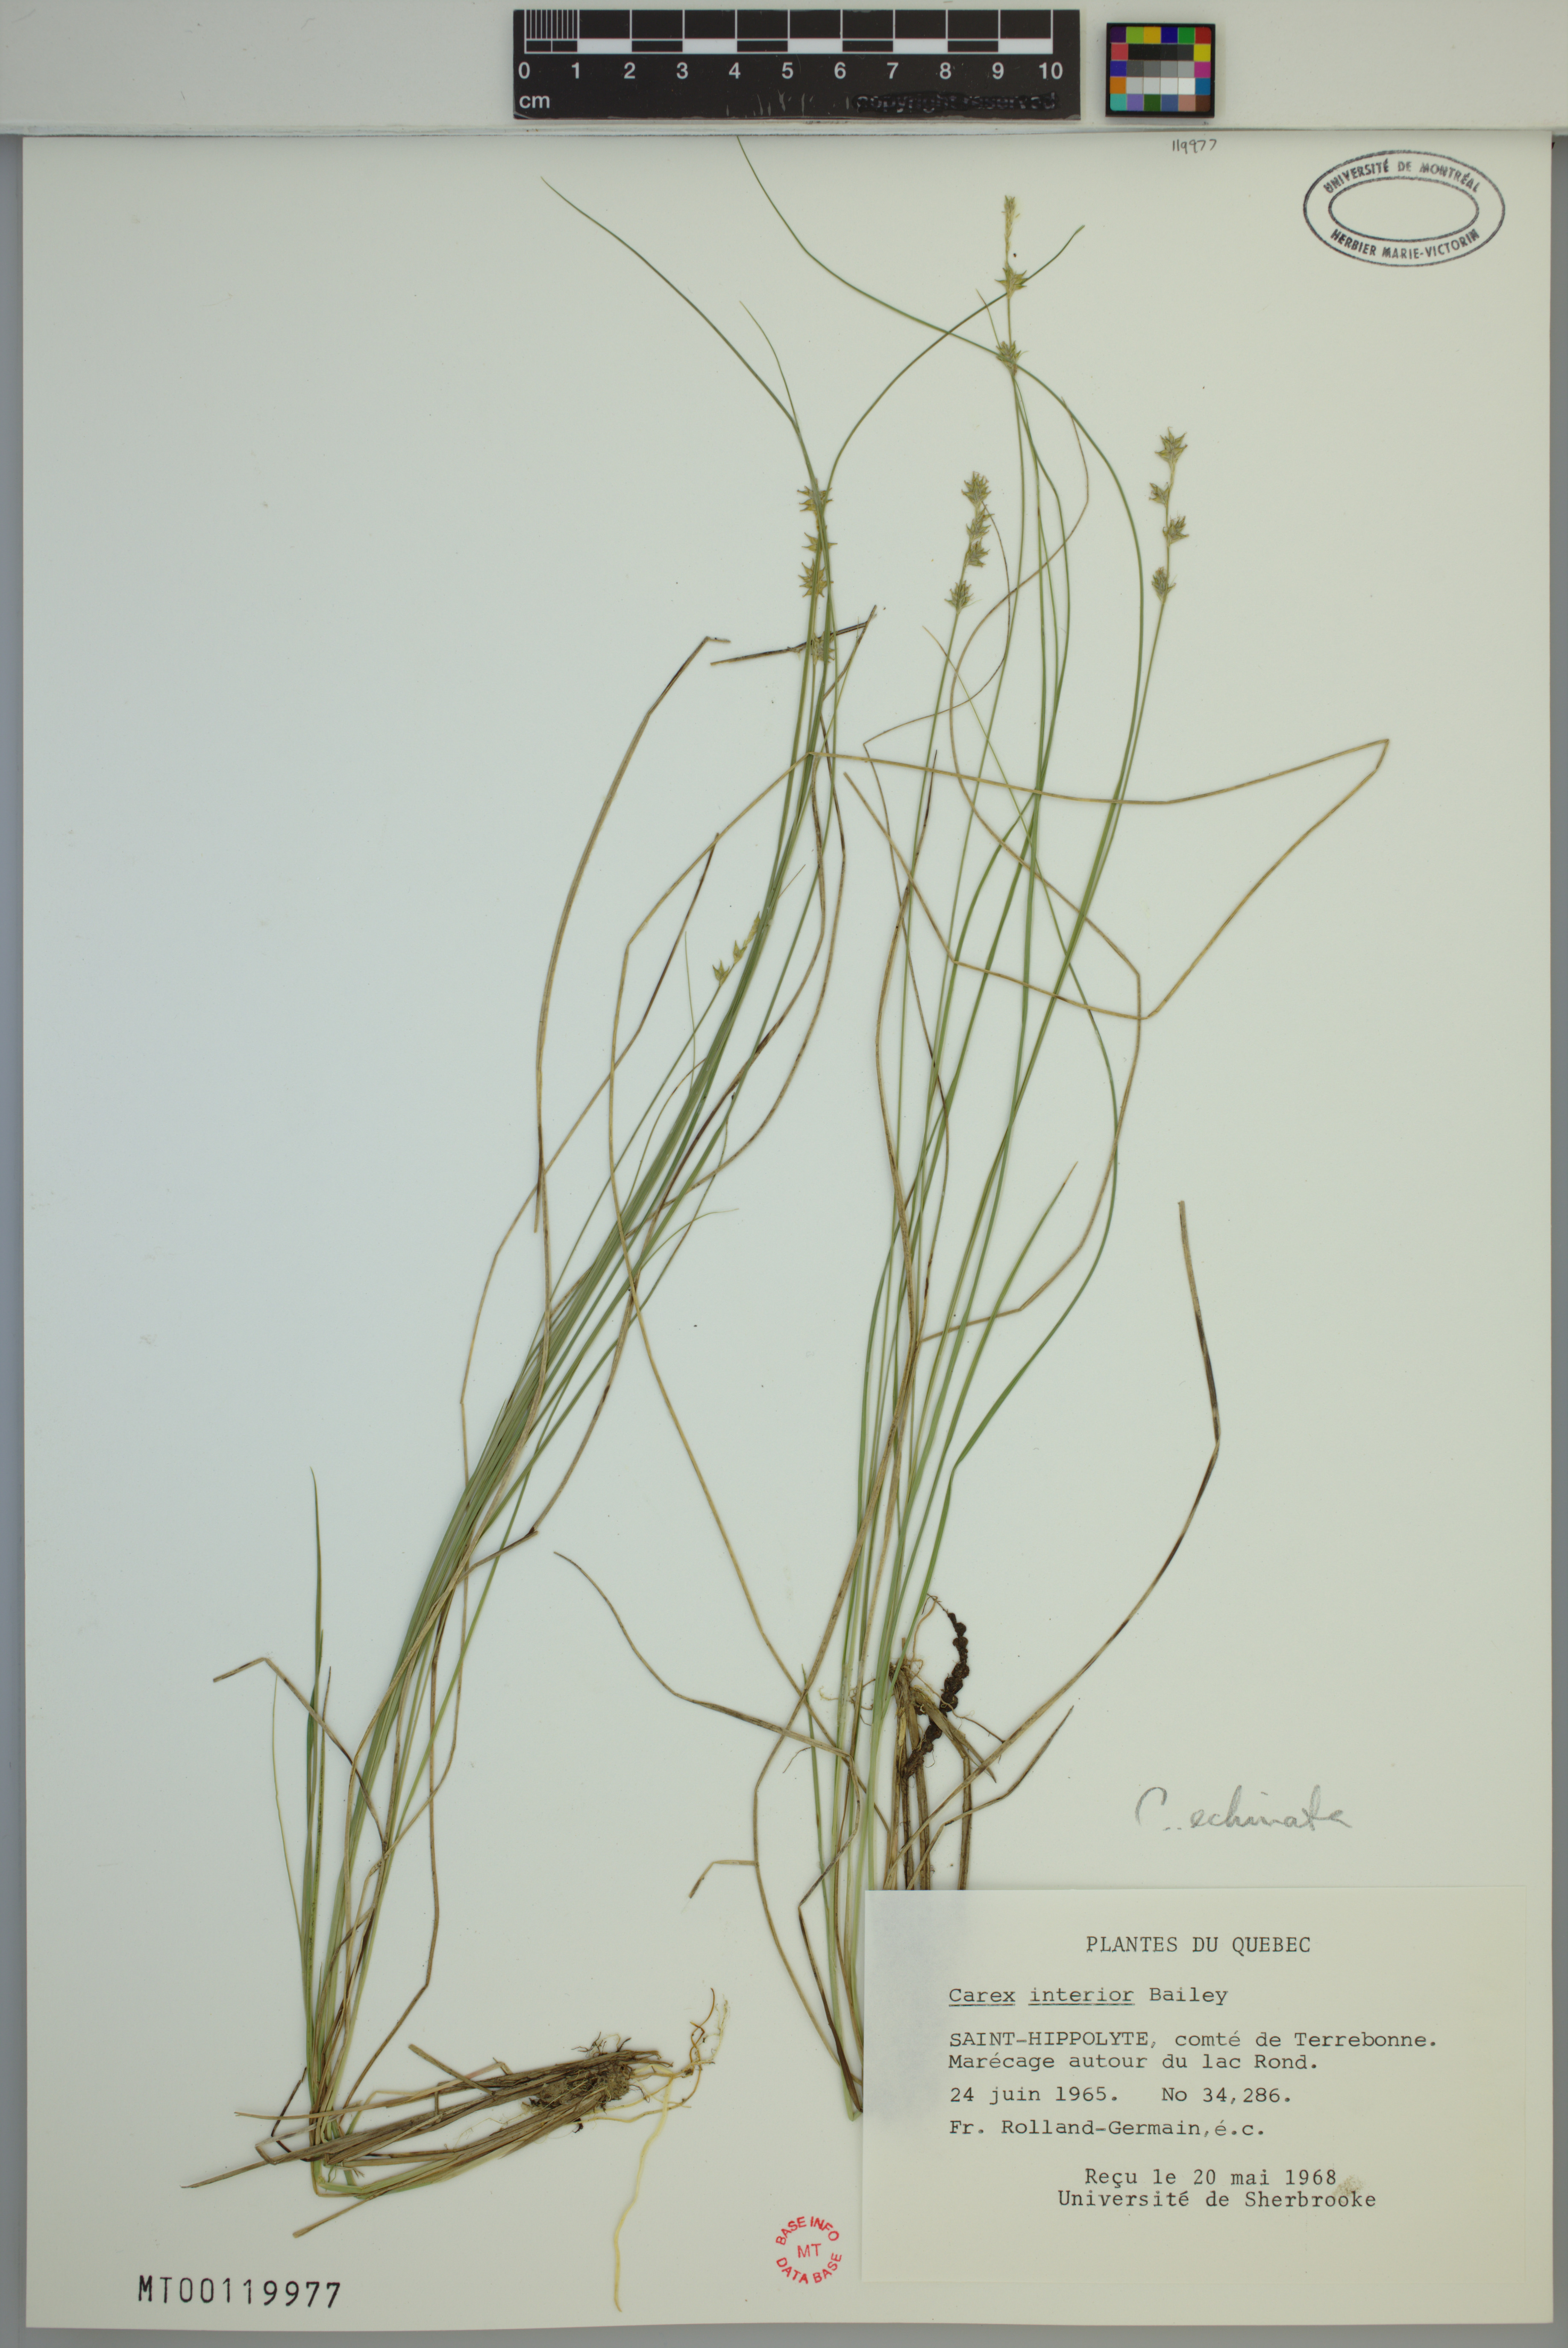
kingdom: Plantae
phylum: Tracheophyta
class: Liliopsida
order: Poales
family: Cyperaceae
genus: Carex
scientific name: Carex echinata
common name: Star sedge
